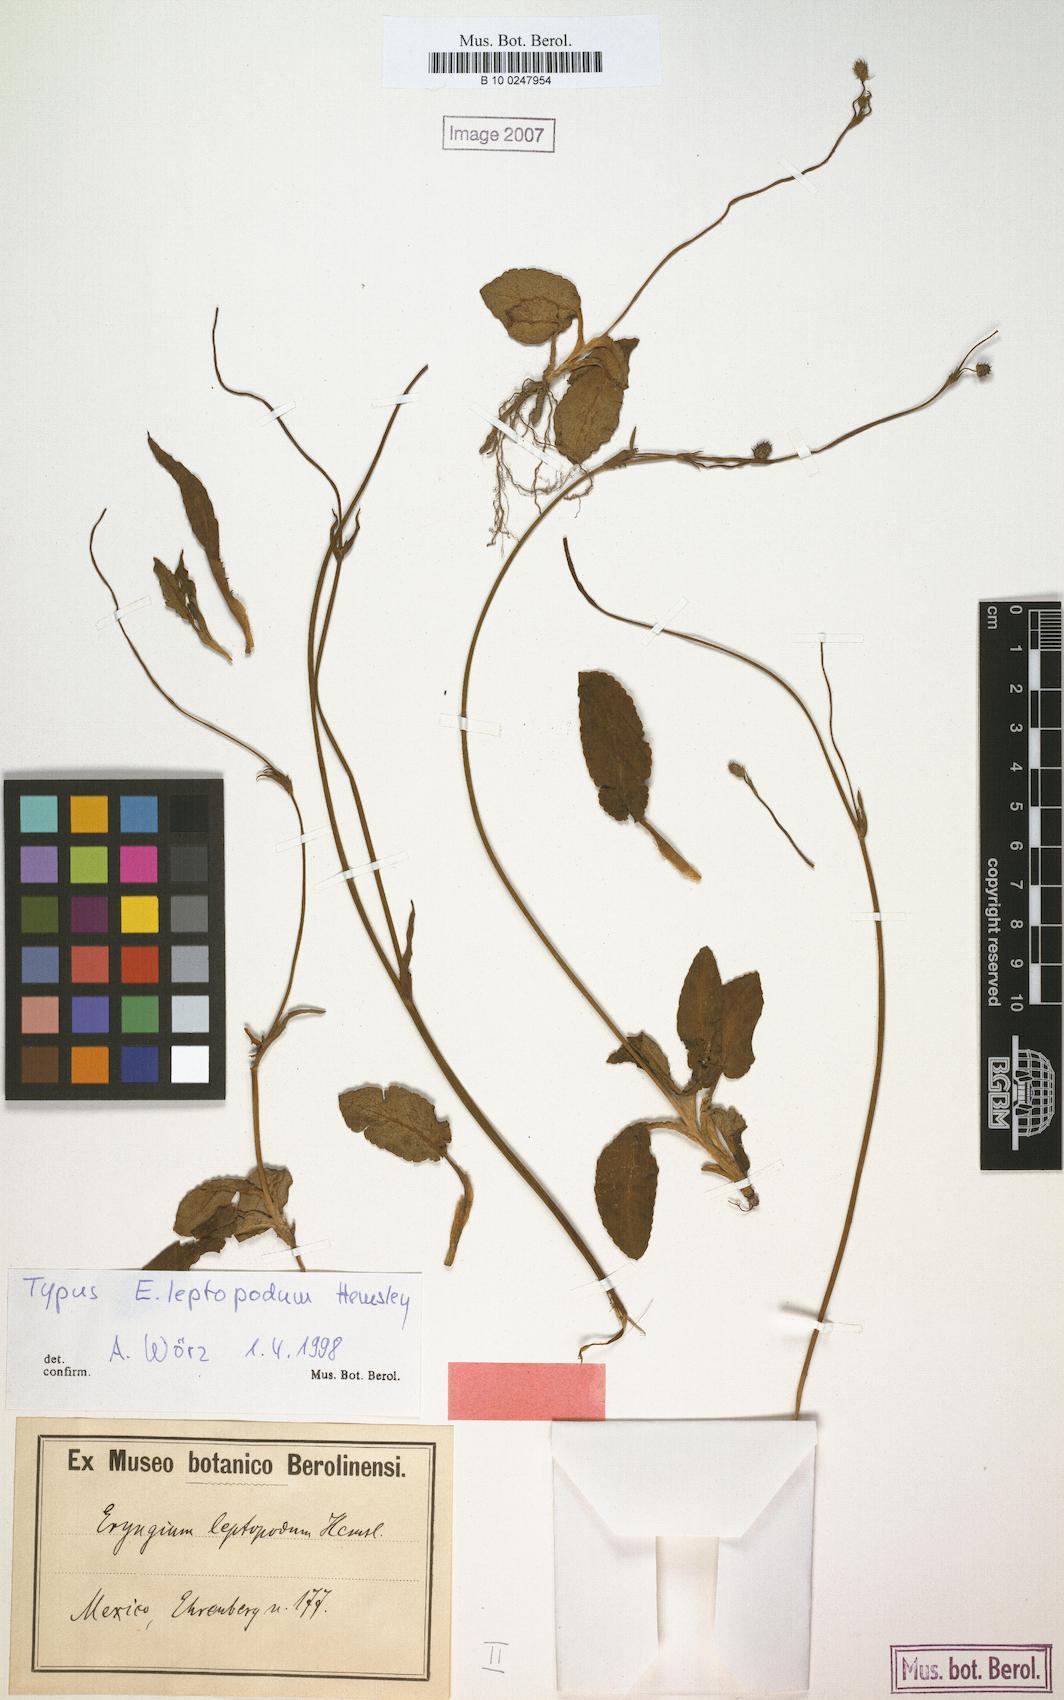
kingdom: Plantae
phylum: Tracheophyta
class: Magnoliopsida
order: Apiales
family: Apiaceae
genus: Eryngium
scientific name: Eryngium bonplandii
